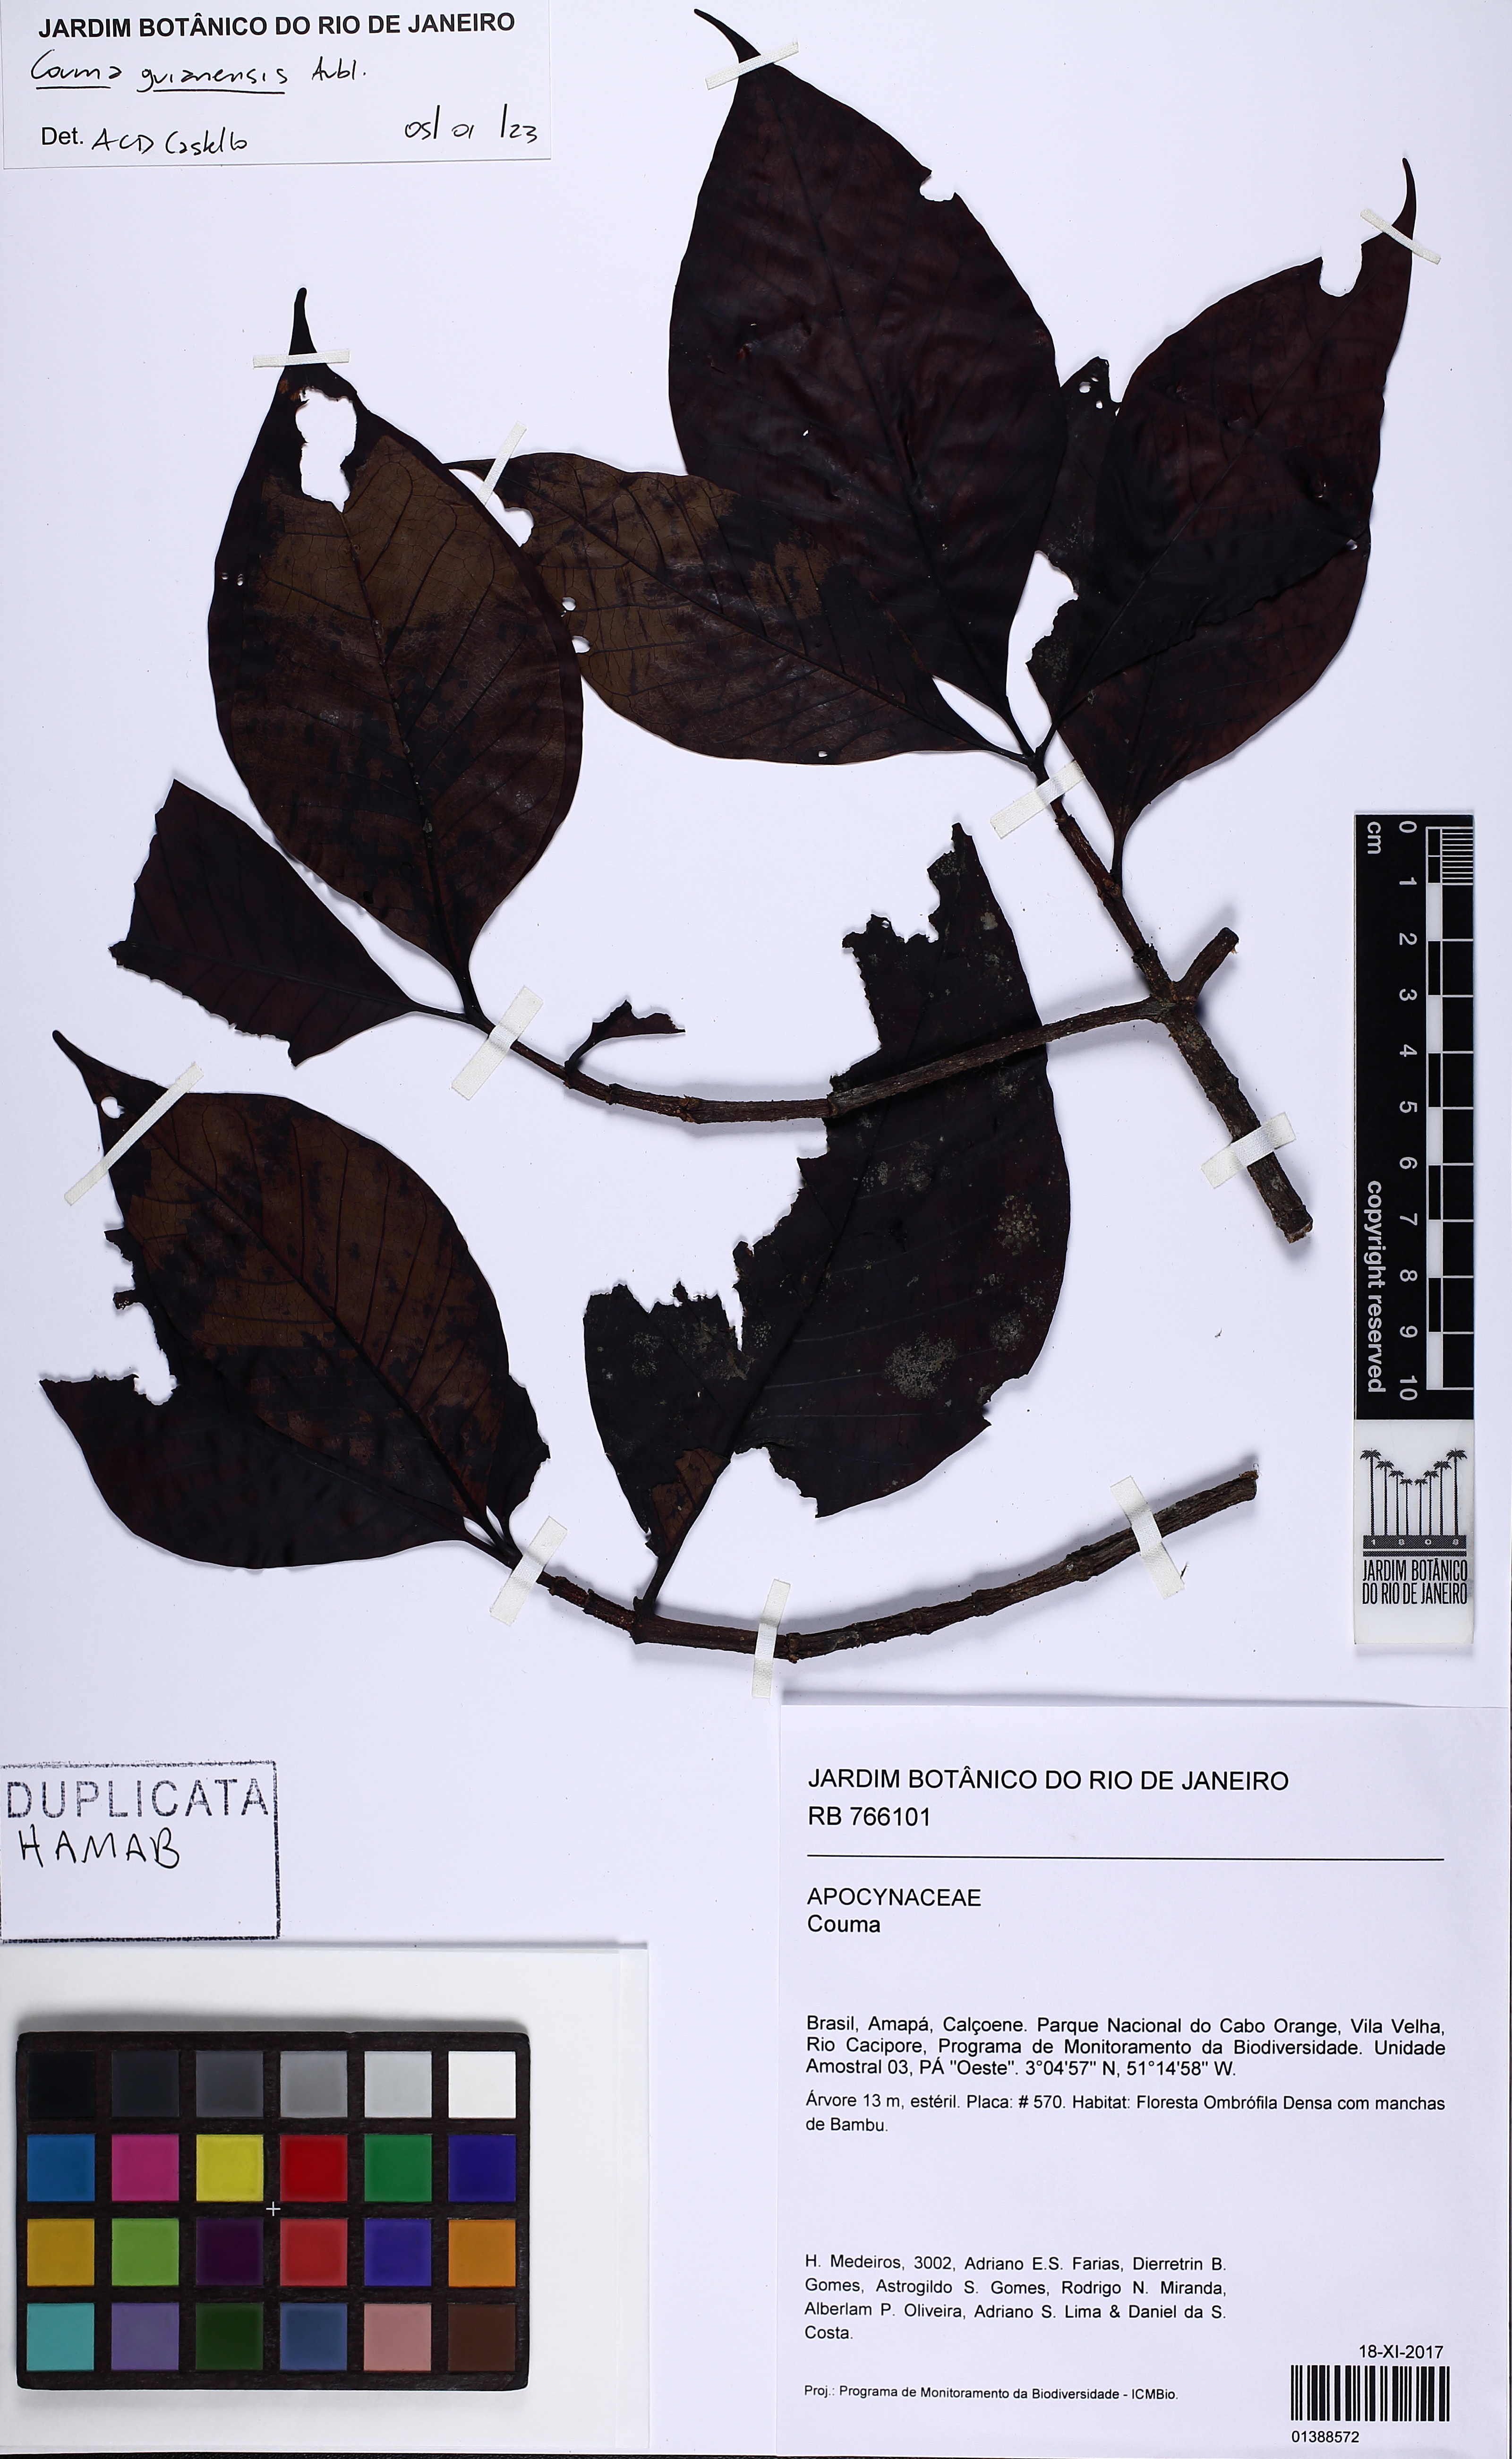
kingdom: Plantae
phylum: Tracheophyta
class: Magnoliopsida
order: Gentianales
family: Apocynaceae
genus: Couma
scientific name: Couma guianensis
